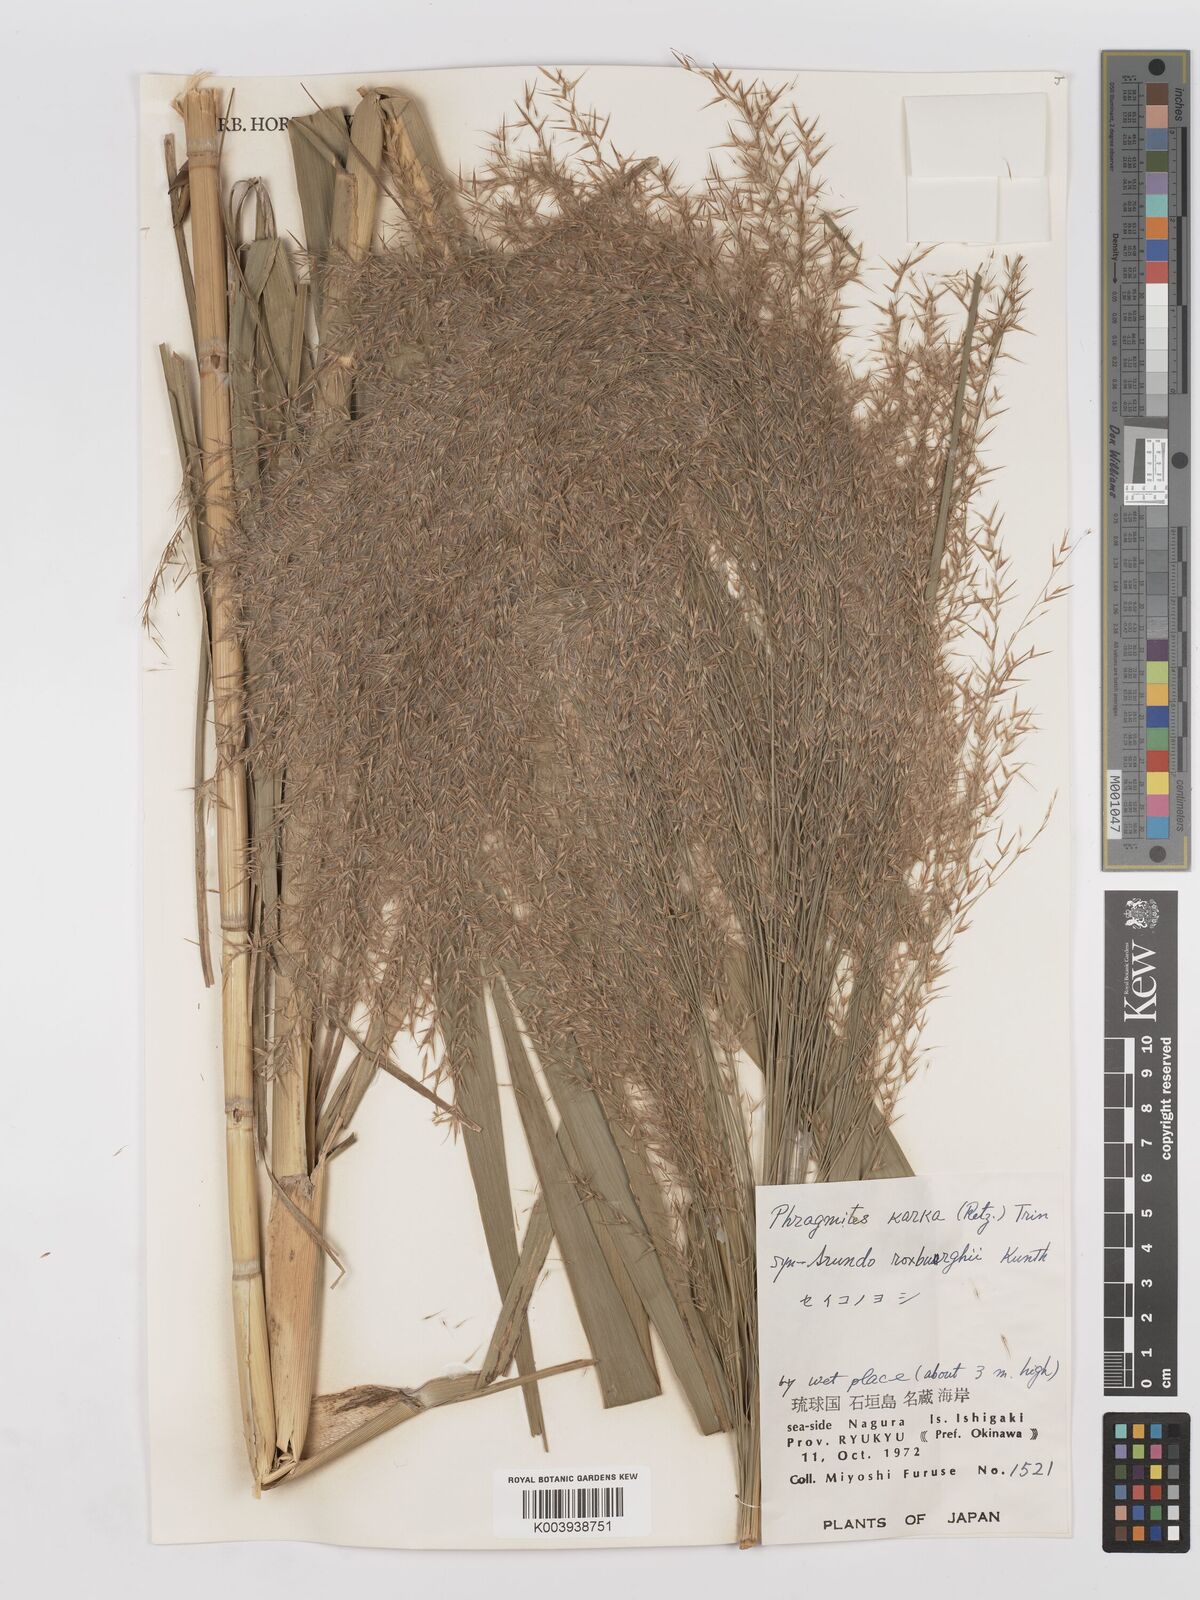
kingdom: Plantae
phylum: Tracheophyta
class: Liliopsida
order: Poales
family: Poaceae
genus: Phragmites
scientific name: Phragmites karka
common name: Tropical reed
